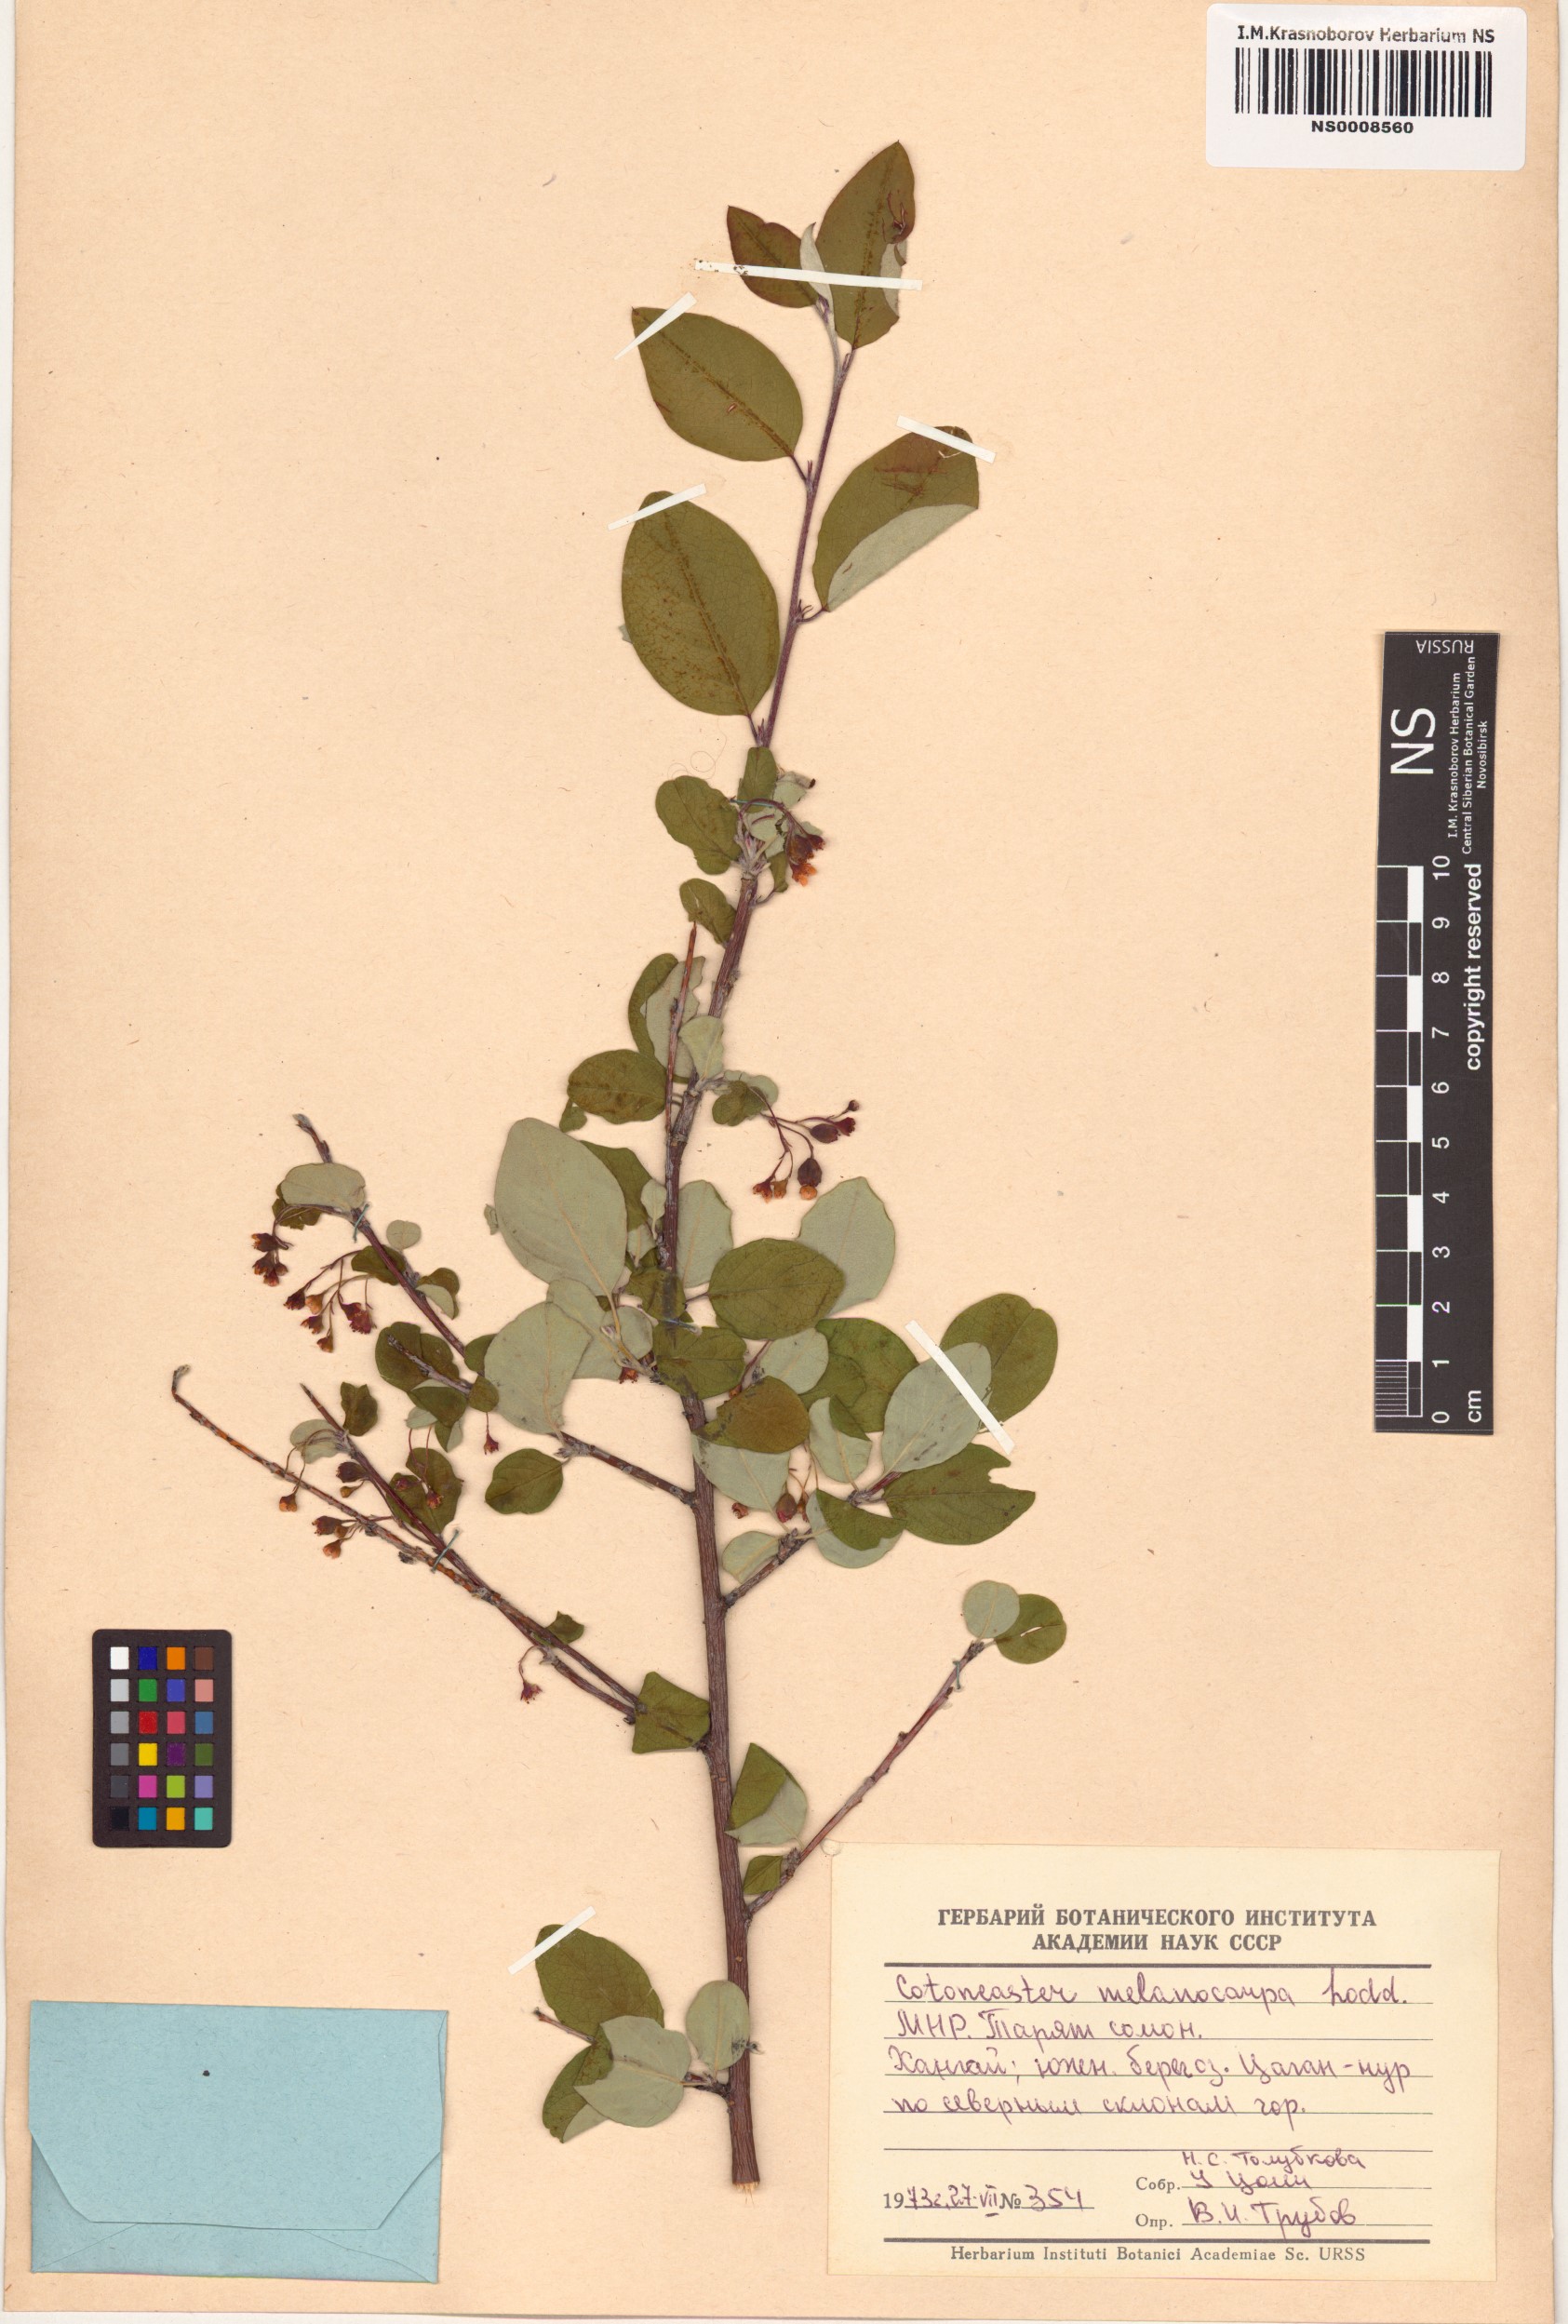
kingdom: Plantae
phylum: Tracheophyta
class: Magnoliopsida
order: Rosales
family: Rosaceae
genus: Cotoneaster
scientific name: Cotoneaster melanocarpus
